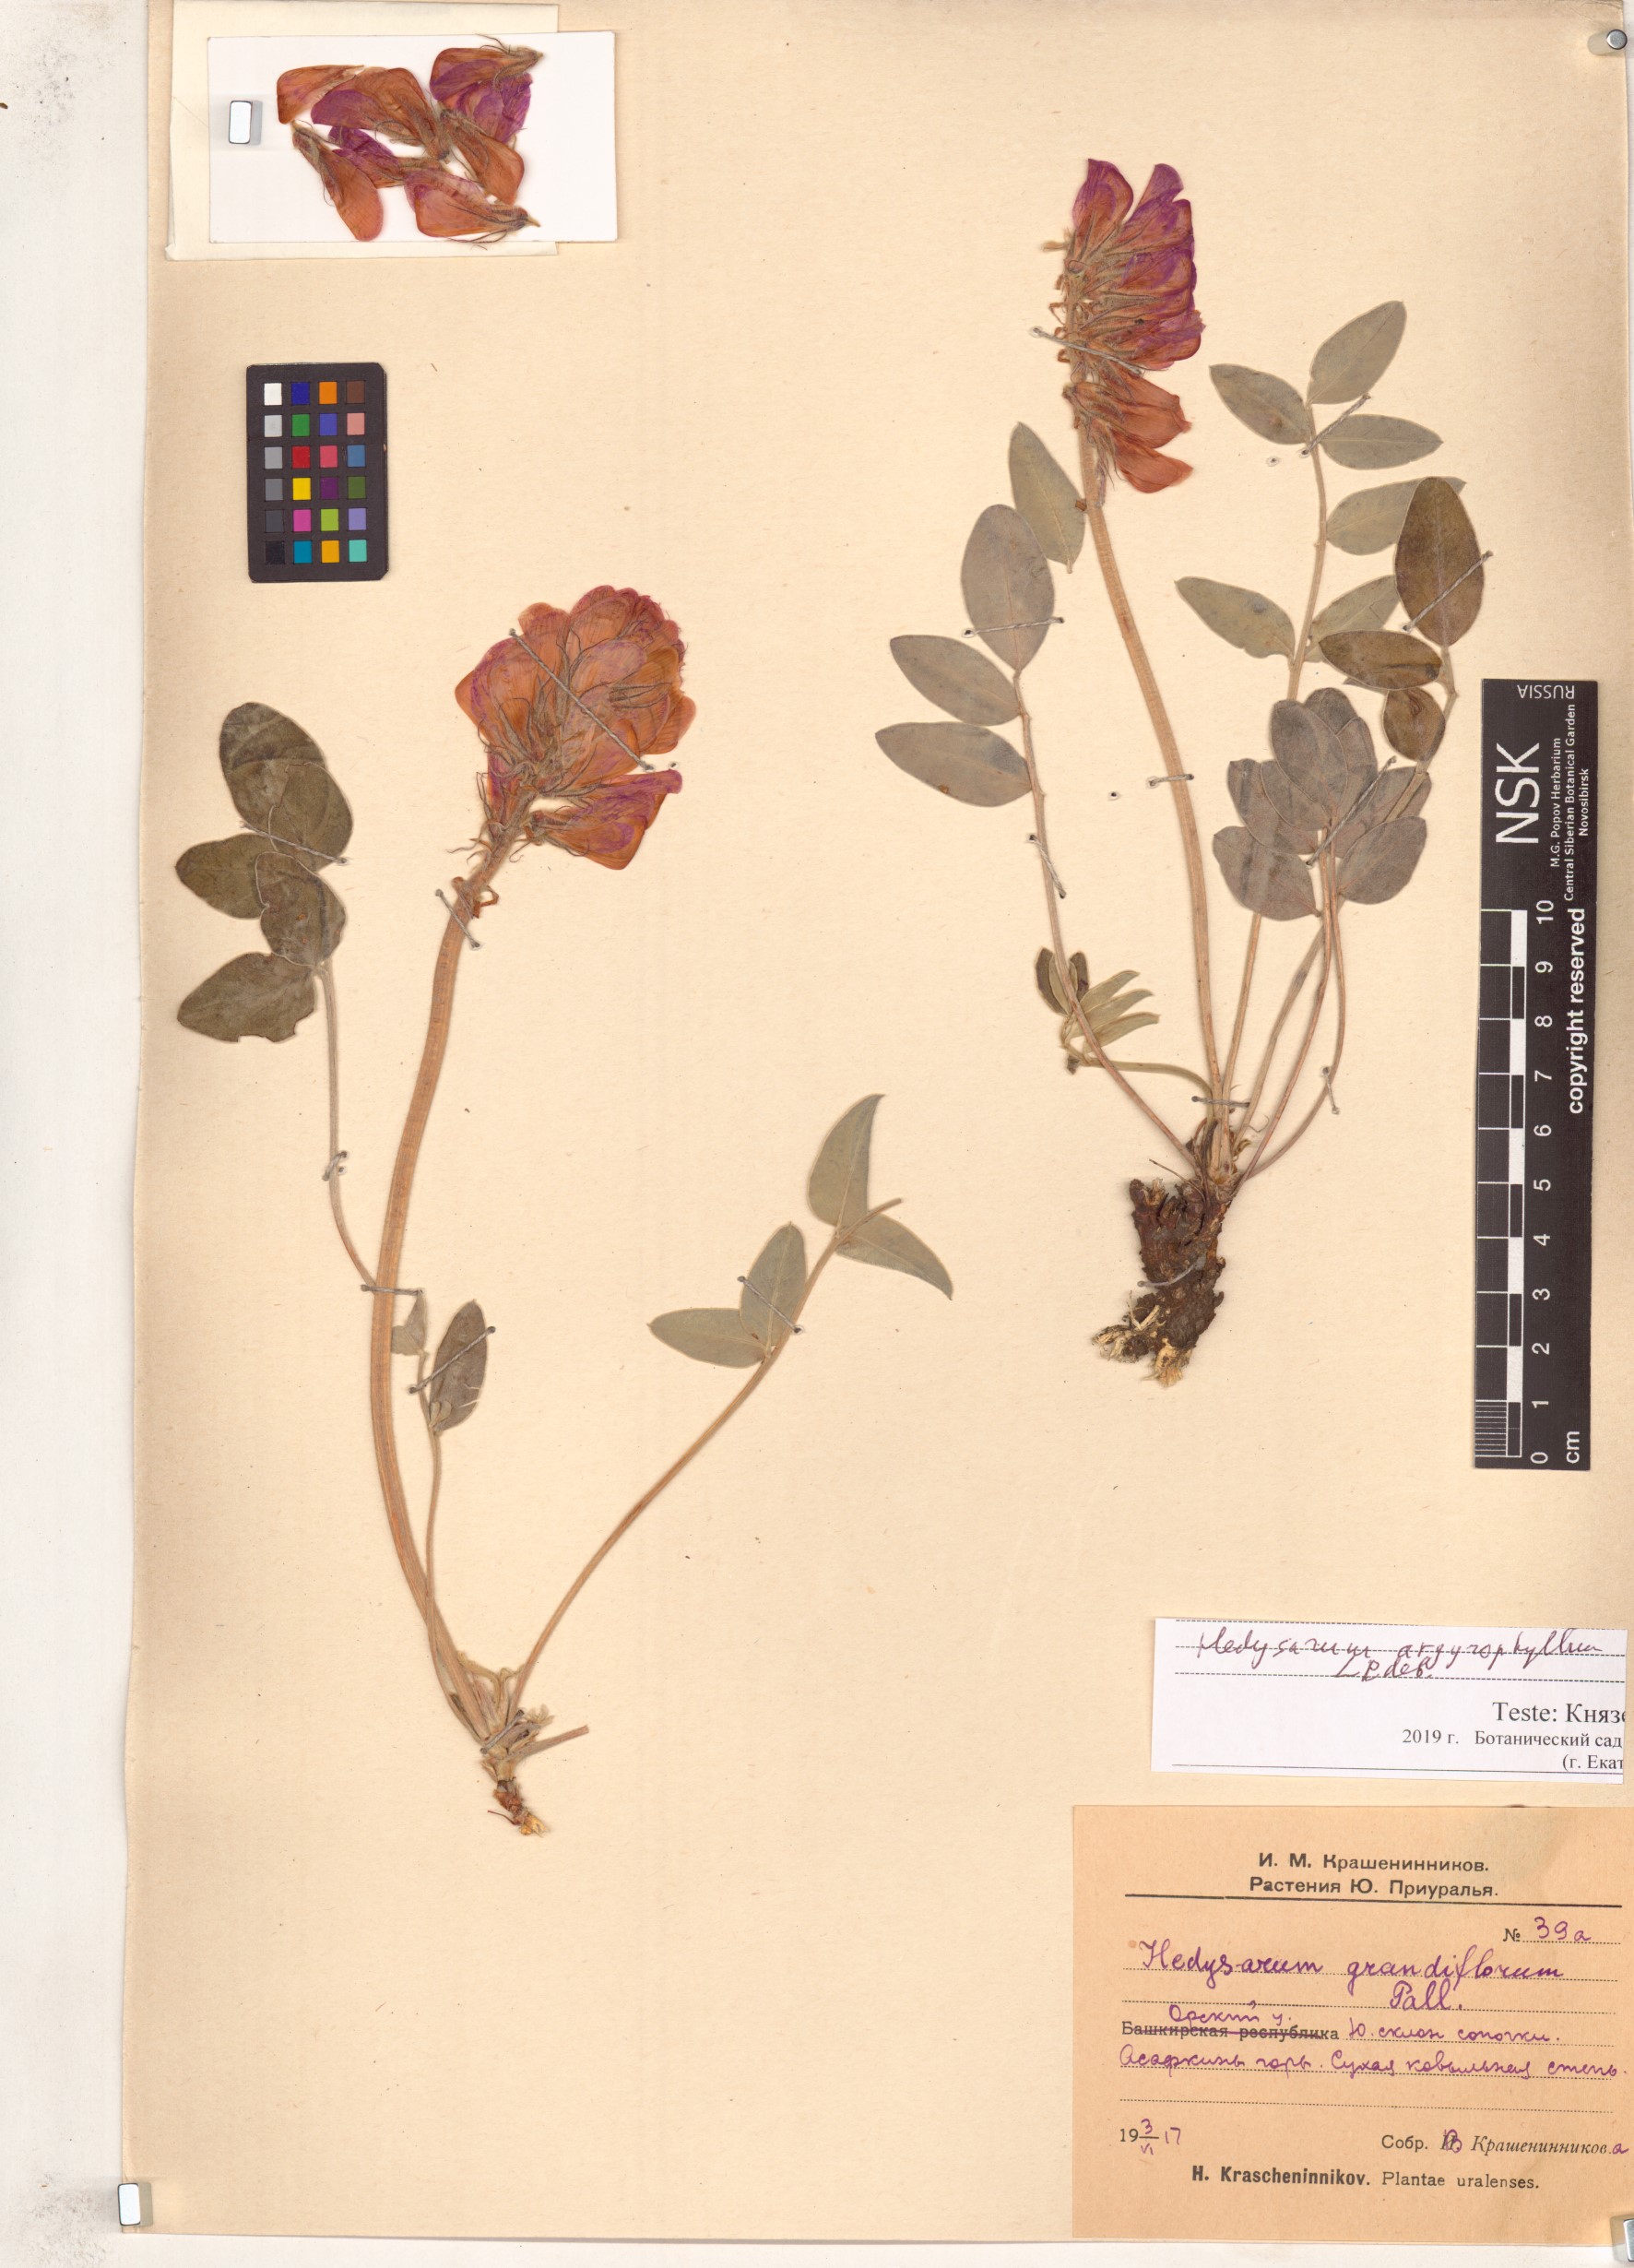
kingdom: Plantae
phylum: Tracheophyta
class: Magnoliopsida
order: Fabales
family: Fabaceae
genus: Hedysarum
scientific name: Hedysarum argyrophyllum
